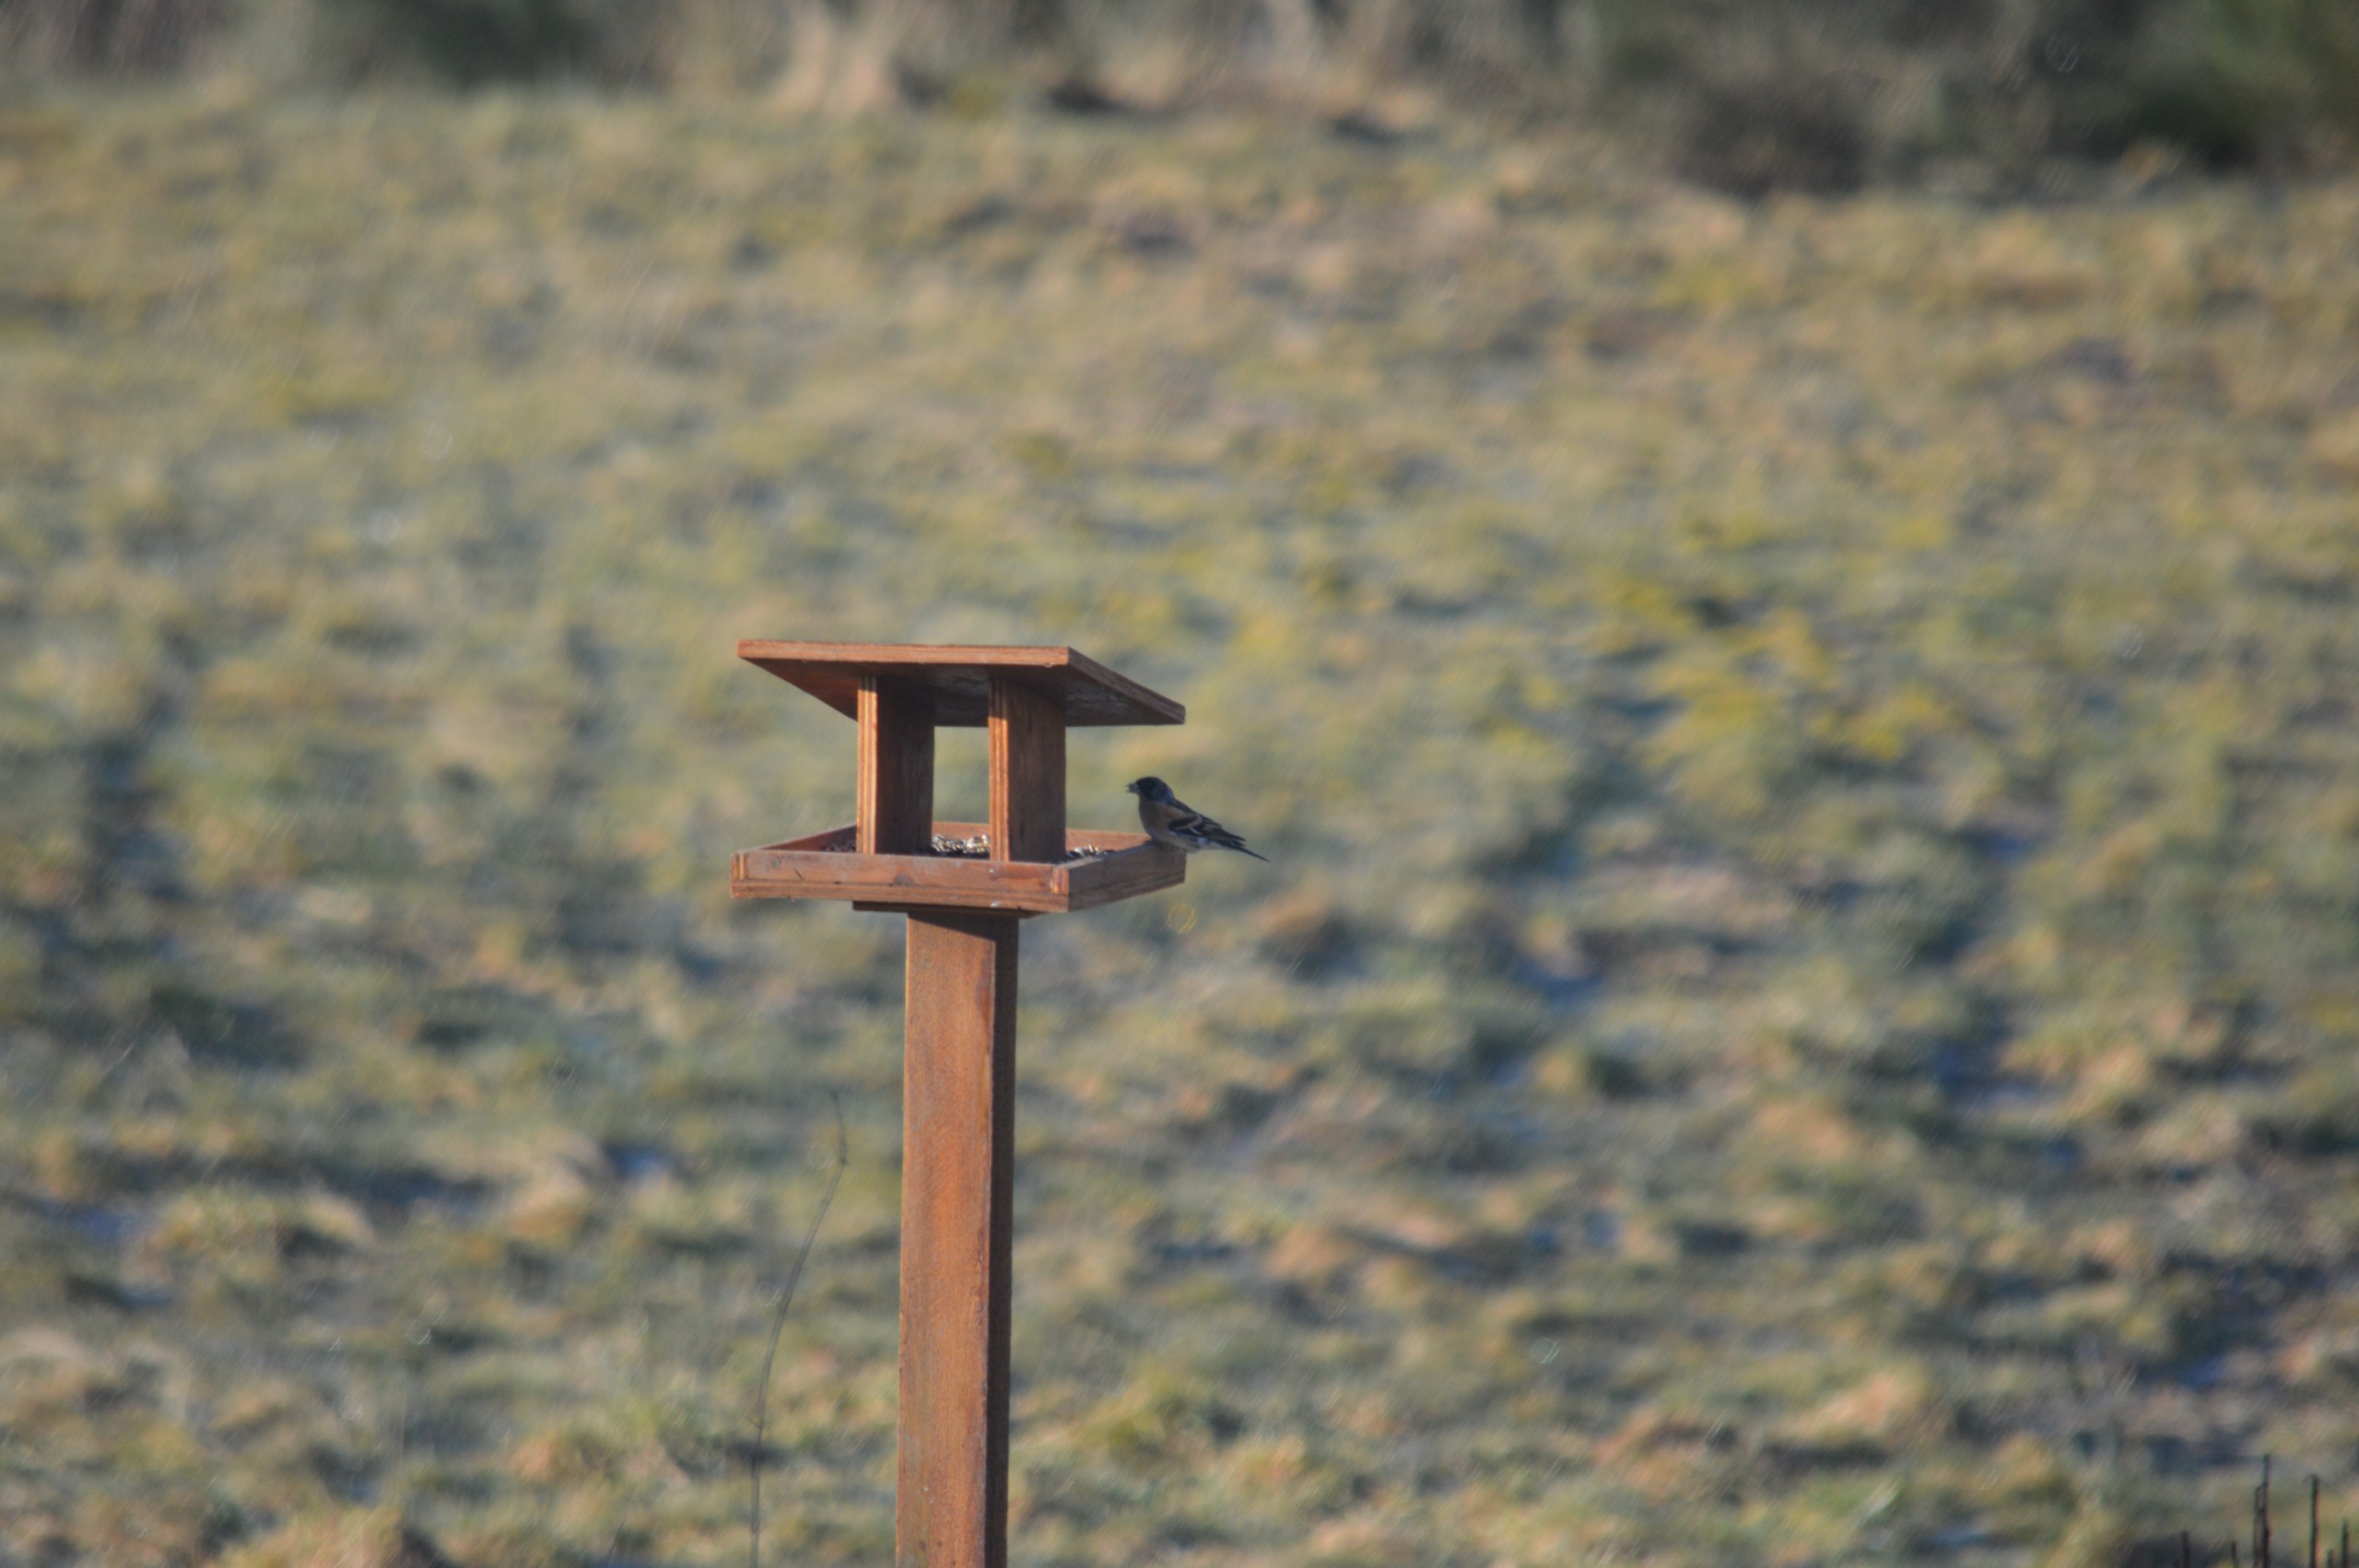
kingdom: Animalia
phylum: Chordata
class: Aves
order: Passeriformes
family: Fringillidae
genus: Fringilla
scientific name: Fringilla montifringilla
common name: Kvækerfinke
